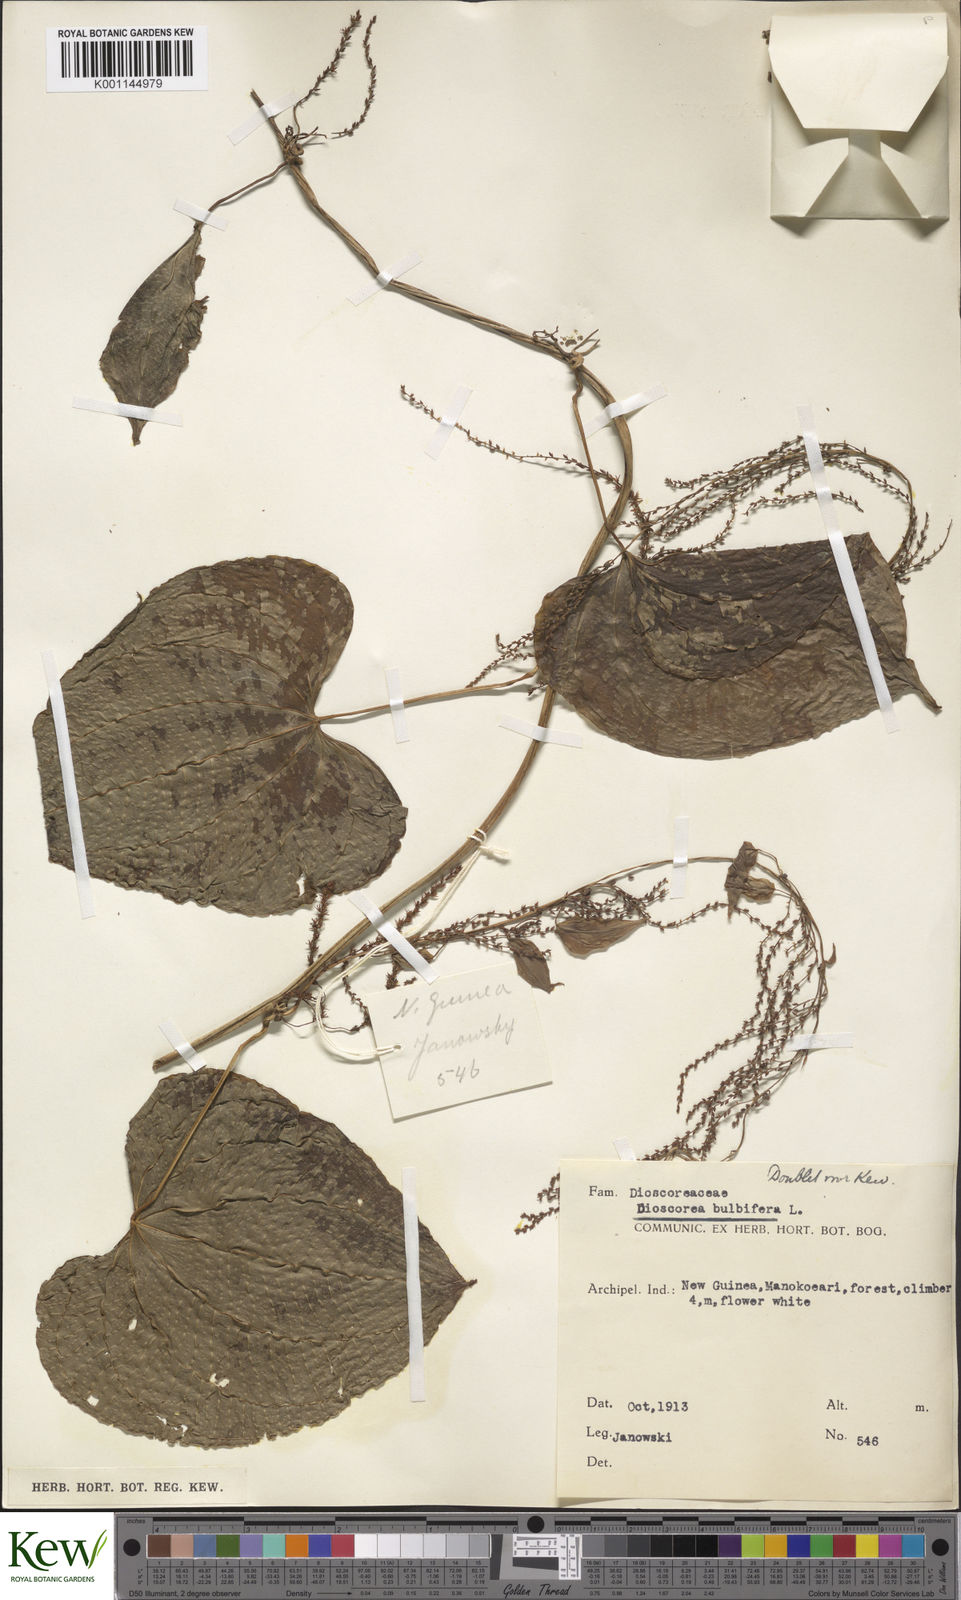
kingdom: Plantae
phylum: Tracheophyta
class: Liliopsida
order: Dioscoreales
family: Dioscoreaceae
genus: Dioscorea
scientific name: Dioscorea bulbifera
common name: Air yam
